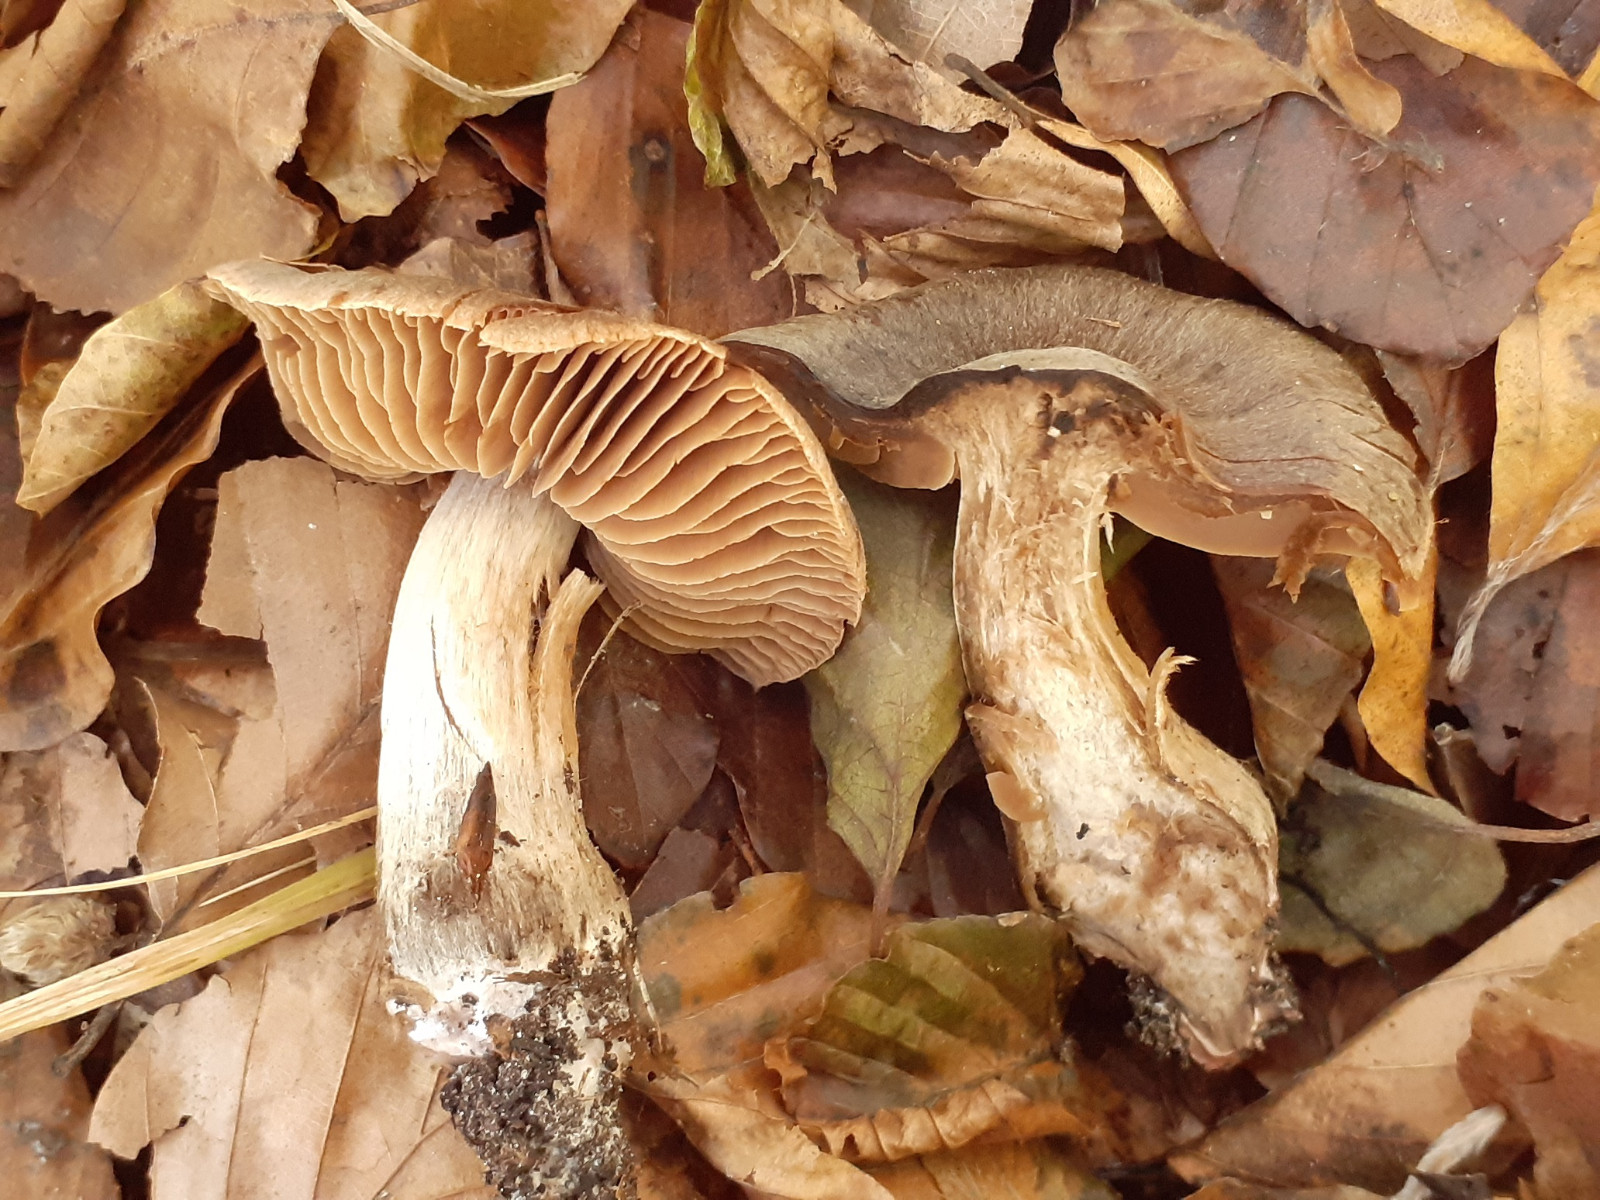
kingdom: Fungi
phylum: Basidiomycota
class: Agaricomycetes
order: Agaricales
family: Cortinariaceae
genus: Cortinarius
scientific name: Cortinarius rubrocinctus
